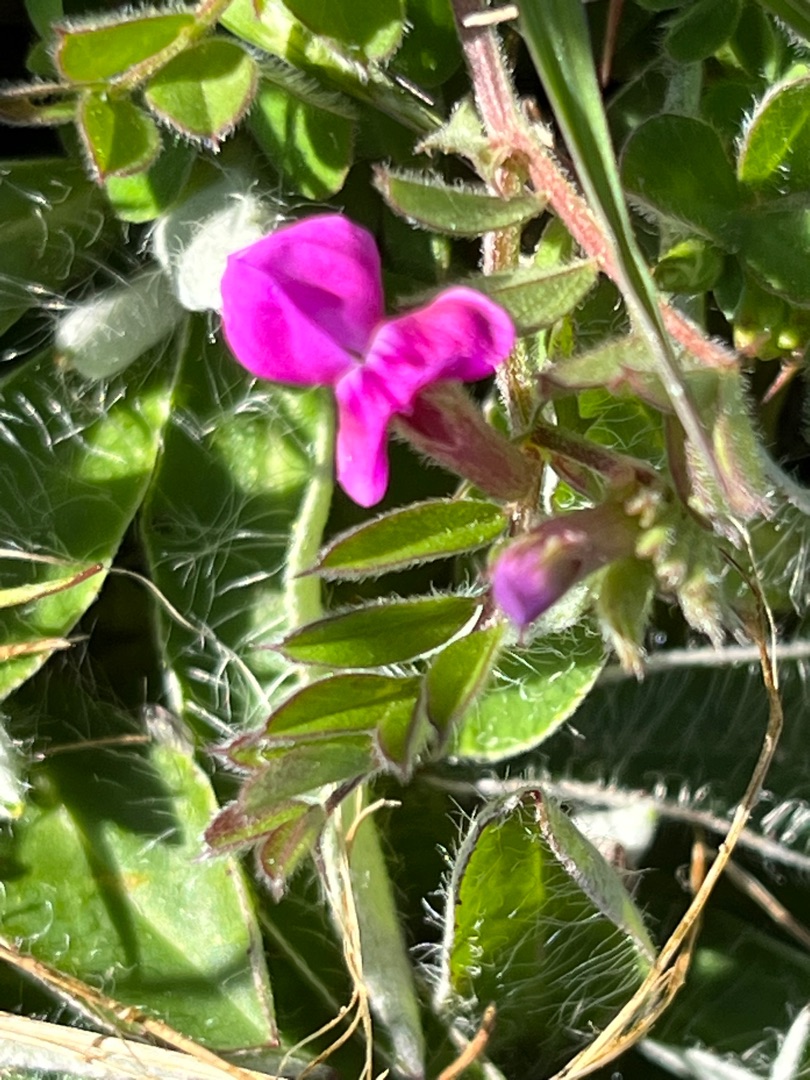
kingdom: Plantae
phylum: Tracheophyta
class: Magnoliopsida
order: Fabales
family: Fabaceae
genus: Vicia
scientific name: Vicia lathyroides
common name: Vår-vikke
